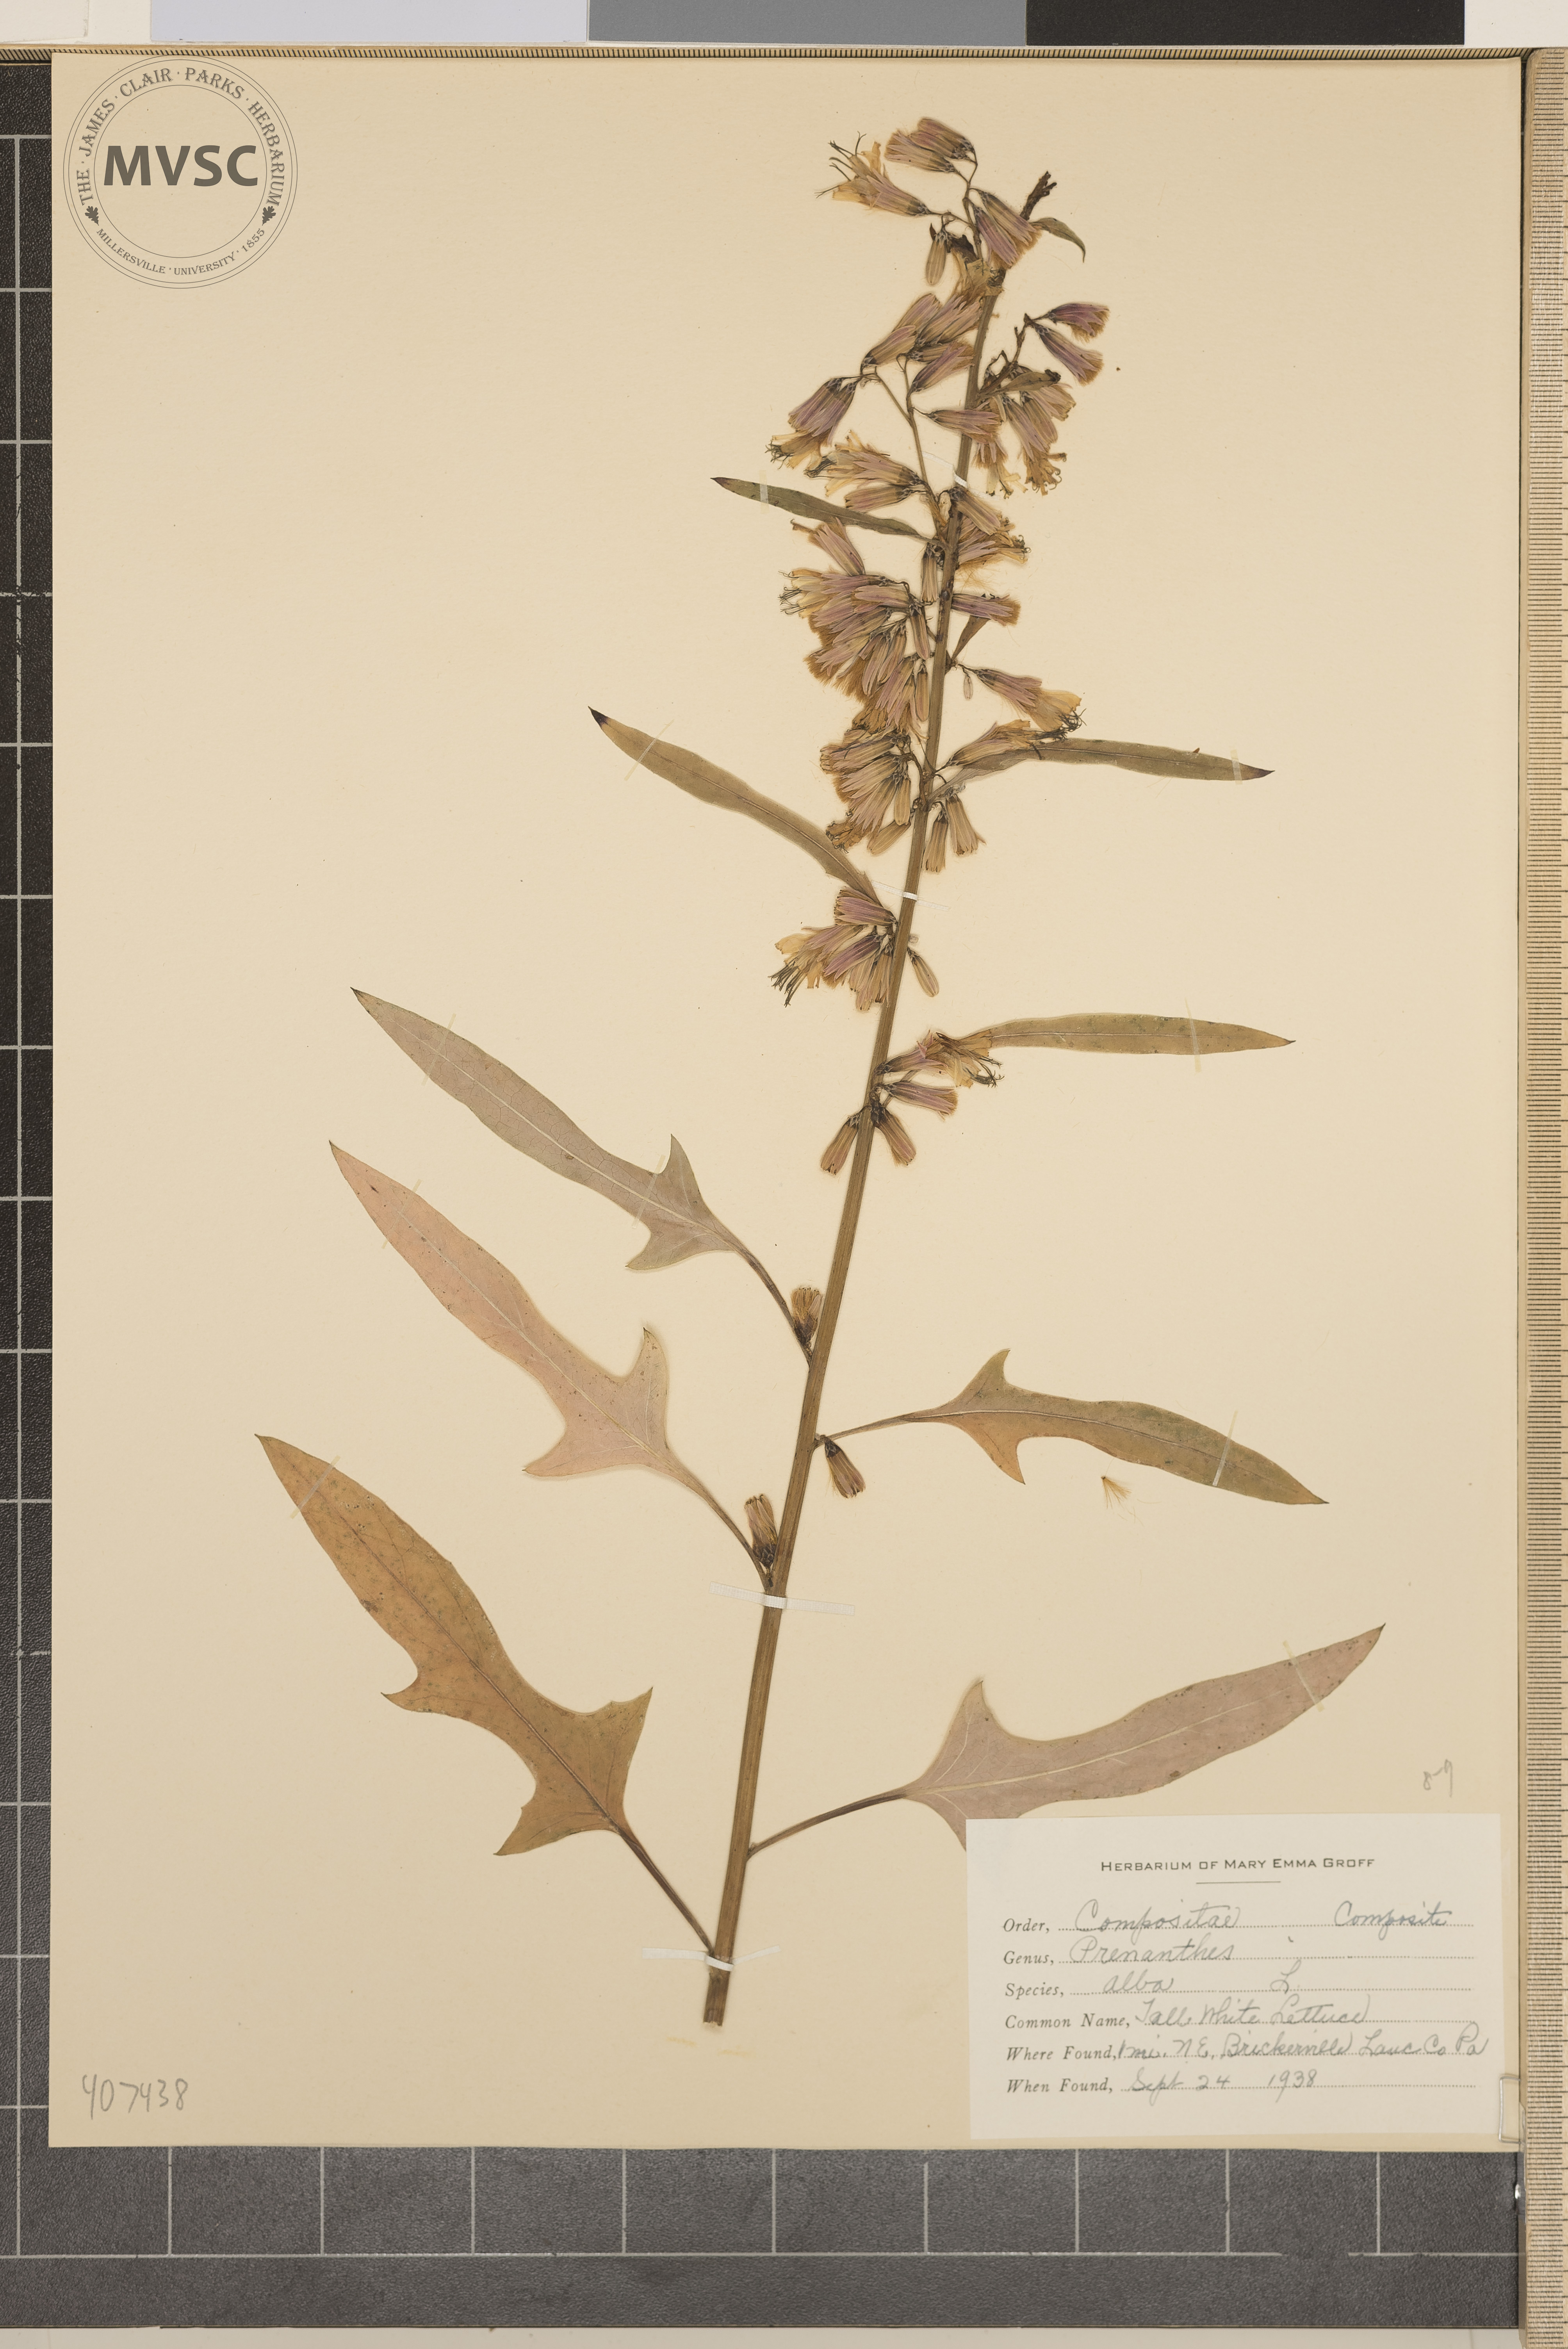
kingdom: Plantae
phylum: Tracheophyta
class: Magnoliopsida
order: Asterales
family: Asteraceae
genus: Nabalus
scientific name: Nabalus
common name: tall white lettuce
